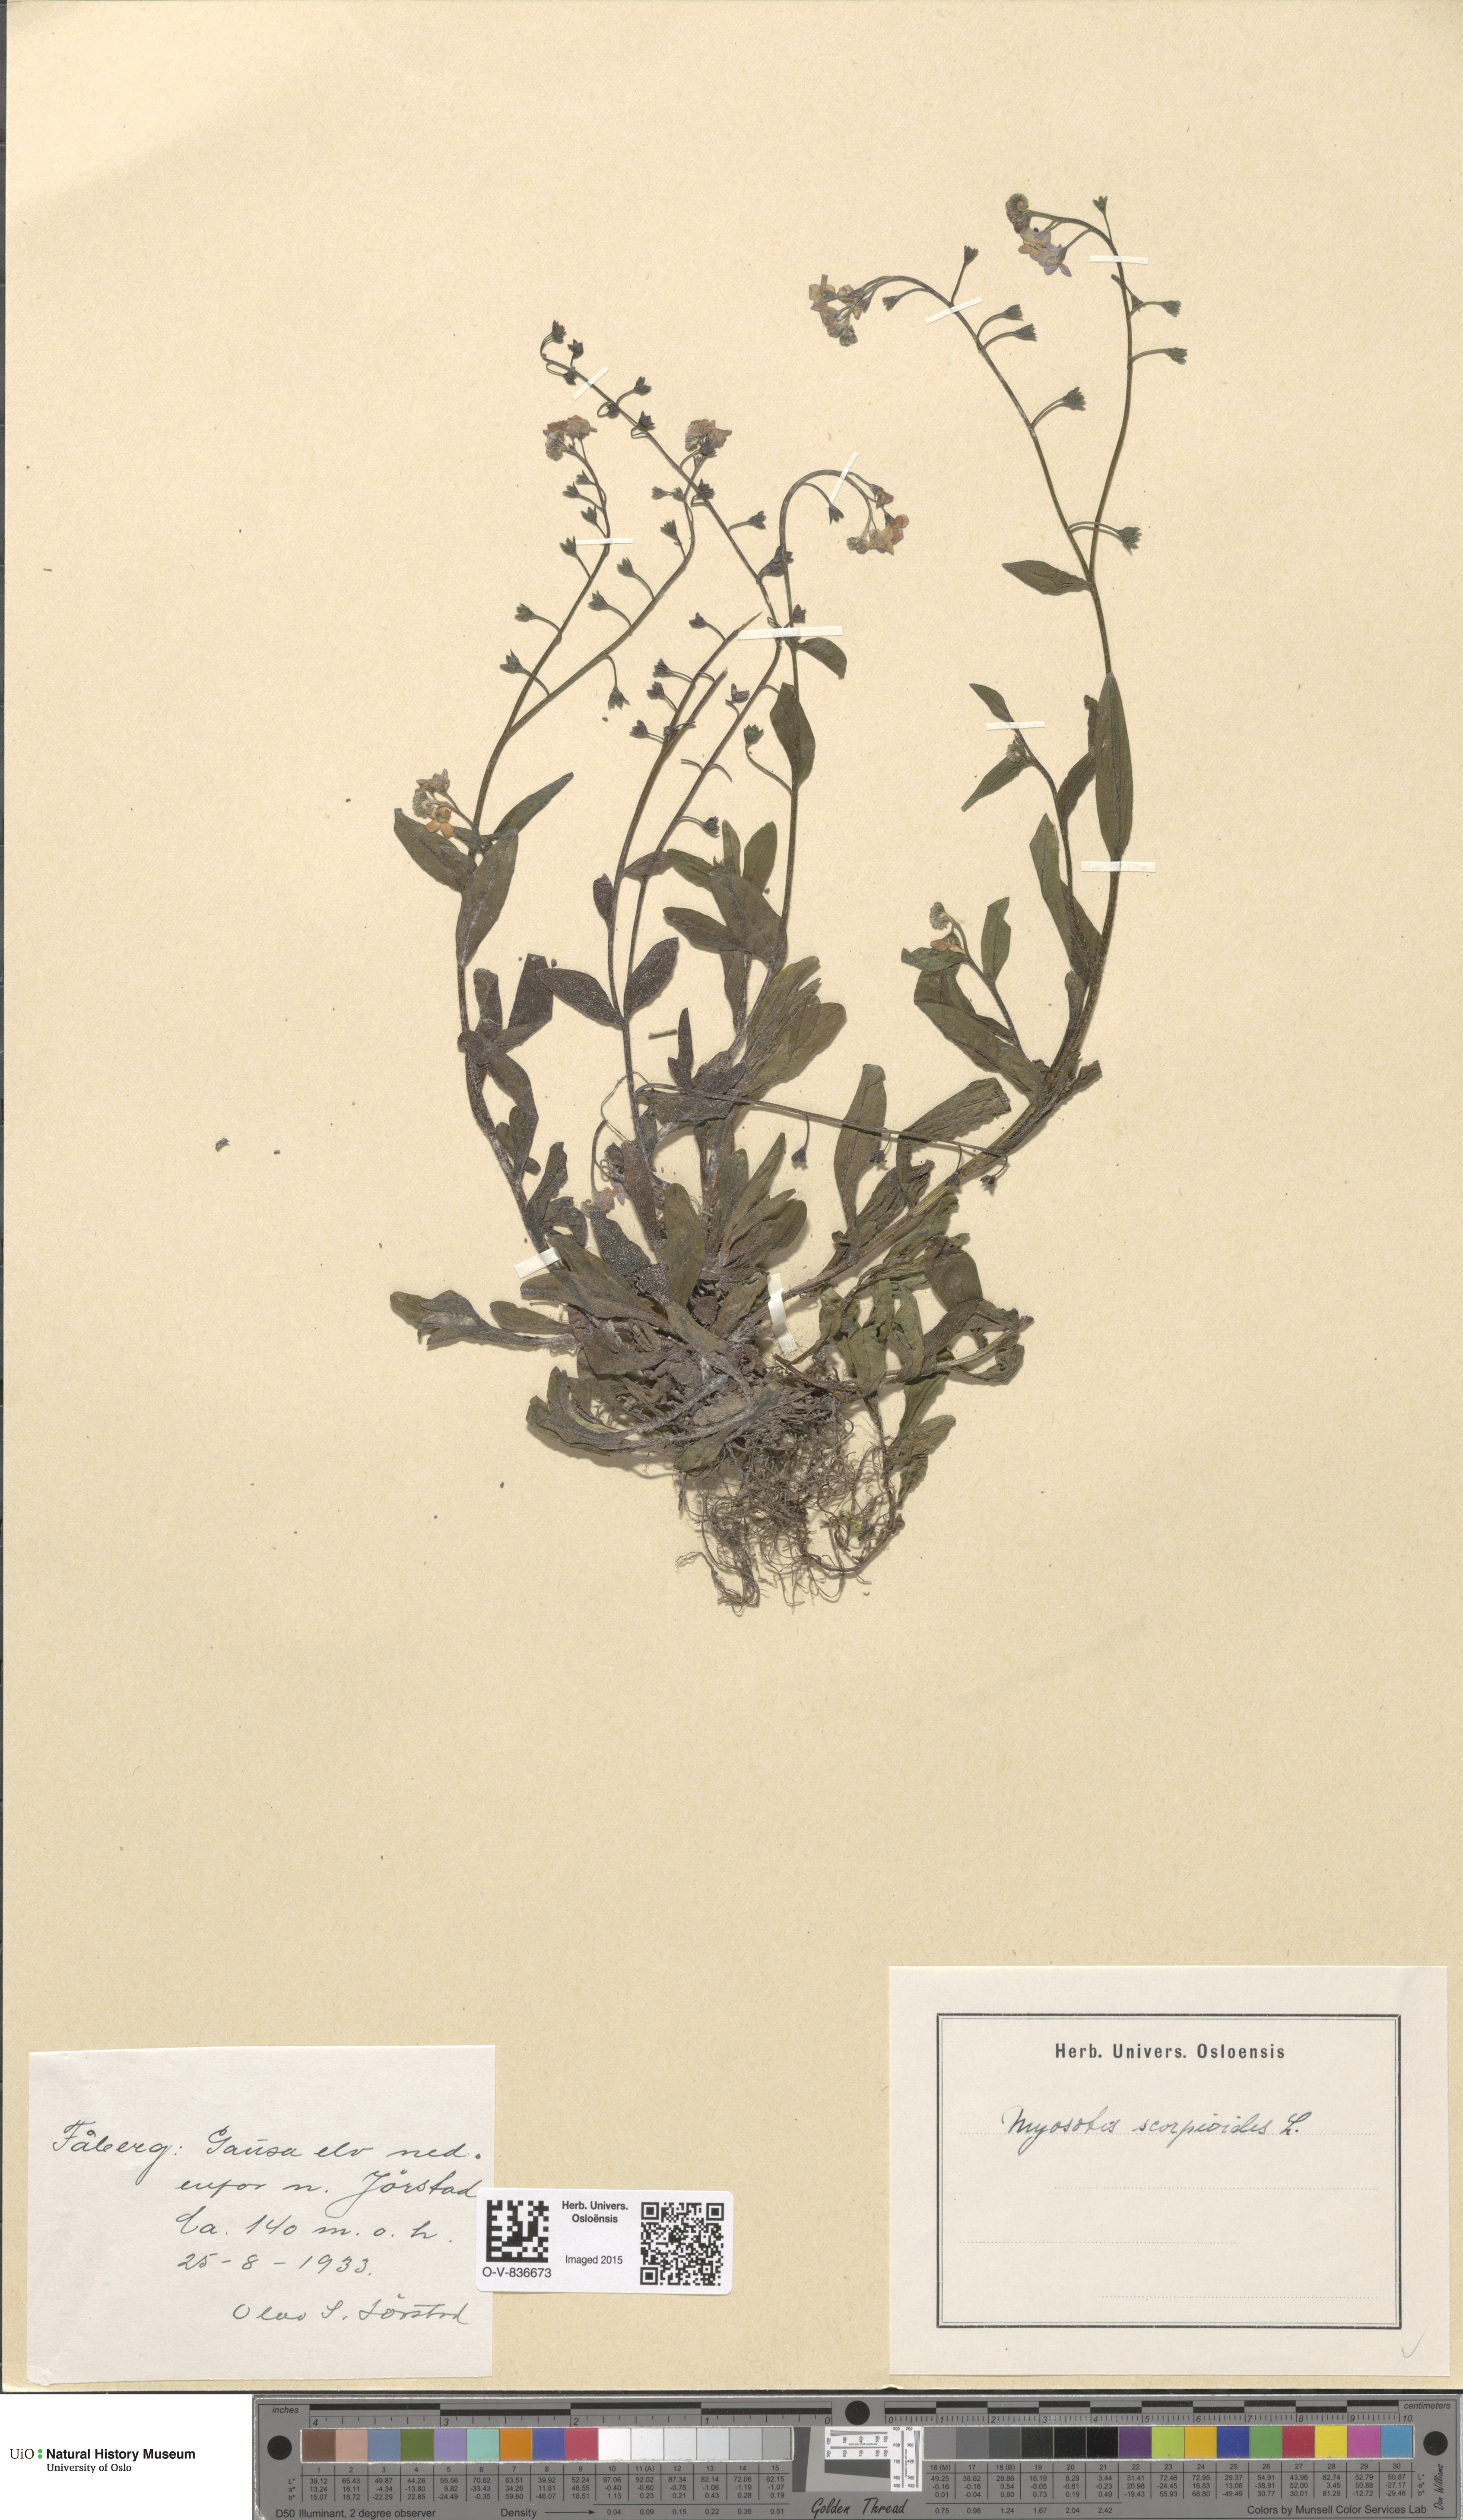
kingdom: Plantae
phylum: Tracheophyta
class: Magnoliopsida
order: Boraginales
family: Boraginaceae
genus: Myosotis
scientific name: Myosotis scorpioides
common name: Water forget-me-not
